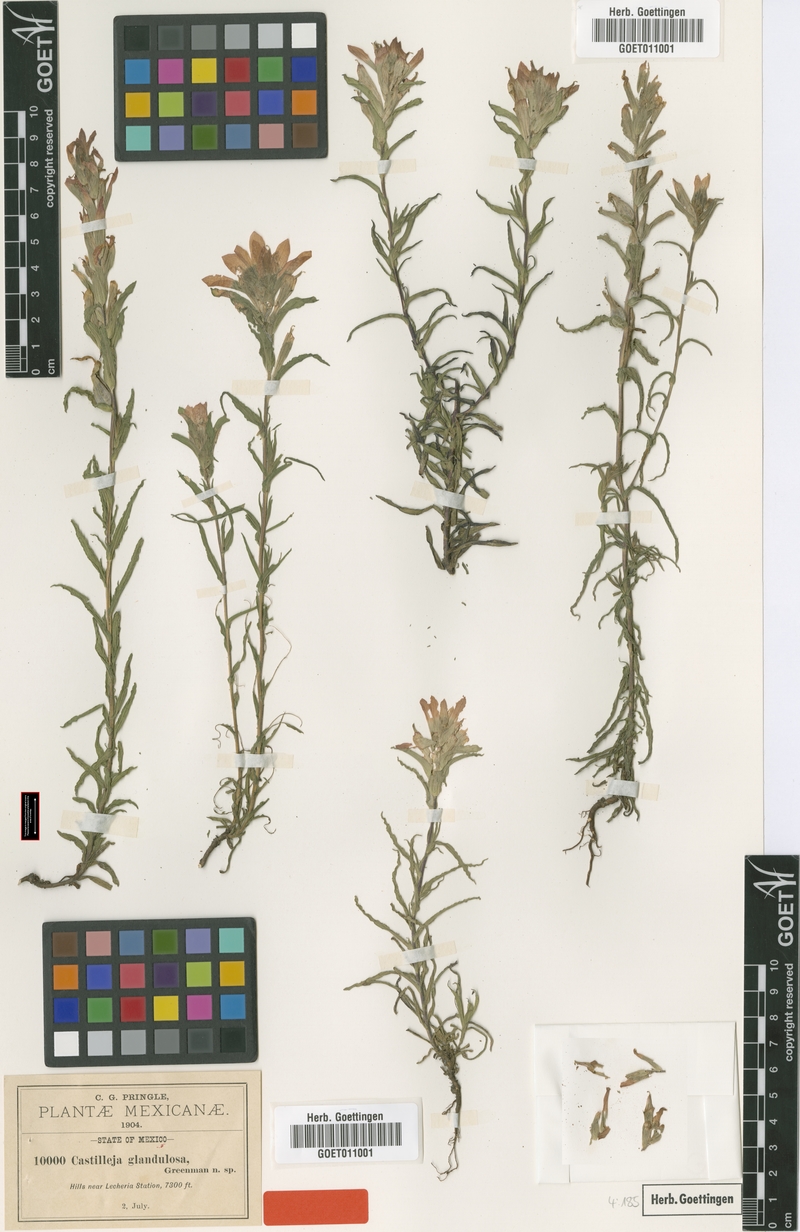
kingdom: Plantae
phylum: Tracheophyta
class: Magnoliopsida
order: Lamiales
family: Orobanchaceae
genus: Castilleja
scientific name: Castilleja scorzonerifolia
